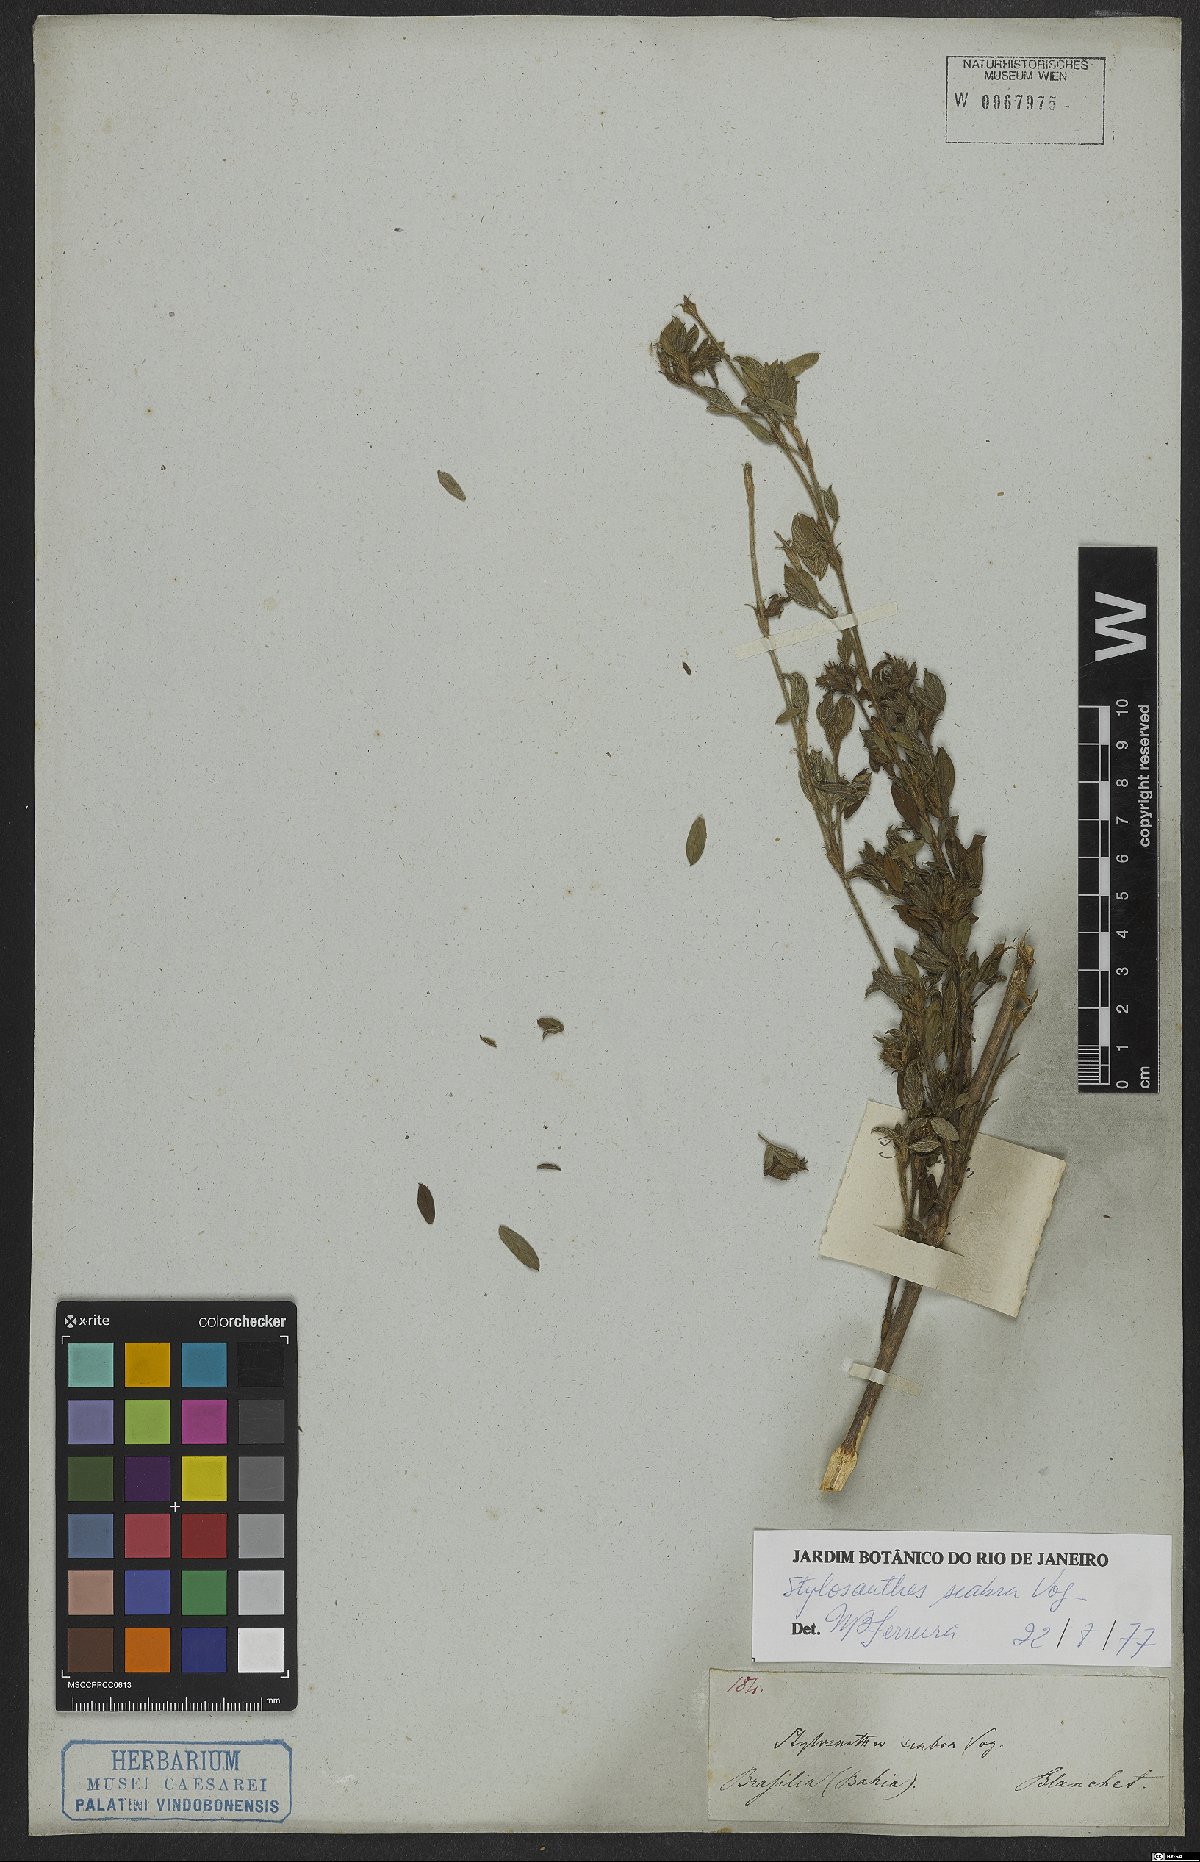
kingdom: Plantae
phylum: Tracheophyta
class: Magnoliopsida
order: Fabales
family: Fabaceae
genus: Stylosanthes
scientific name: Stylosanthes scabra
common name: Pencilflower
